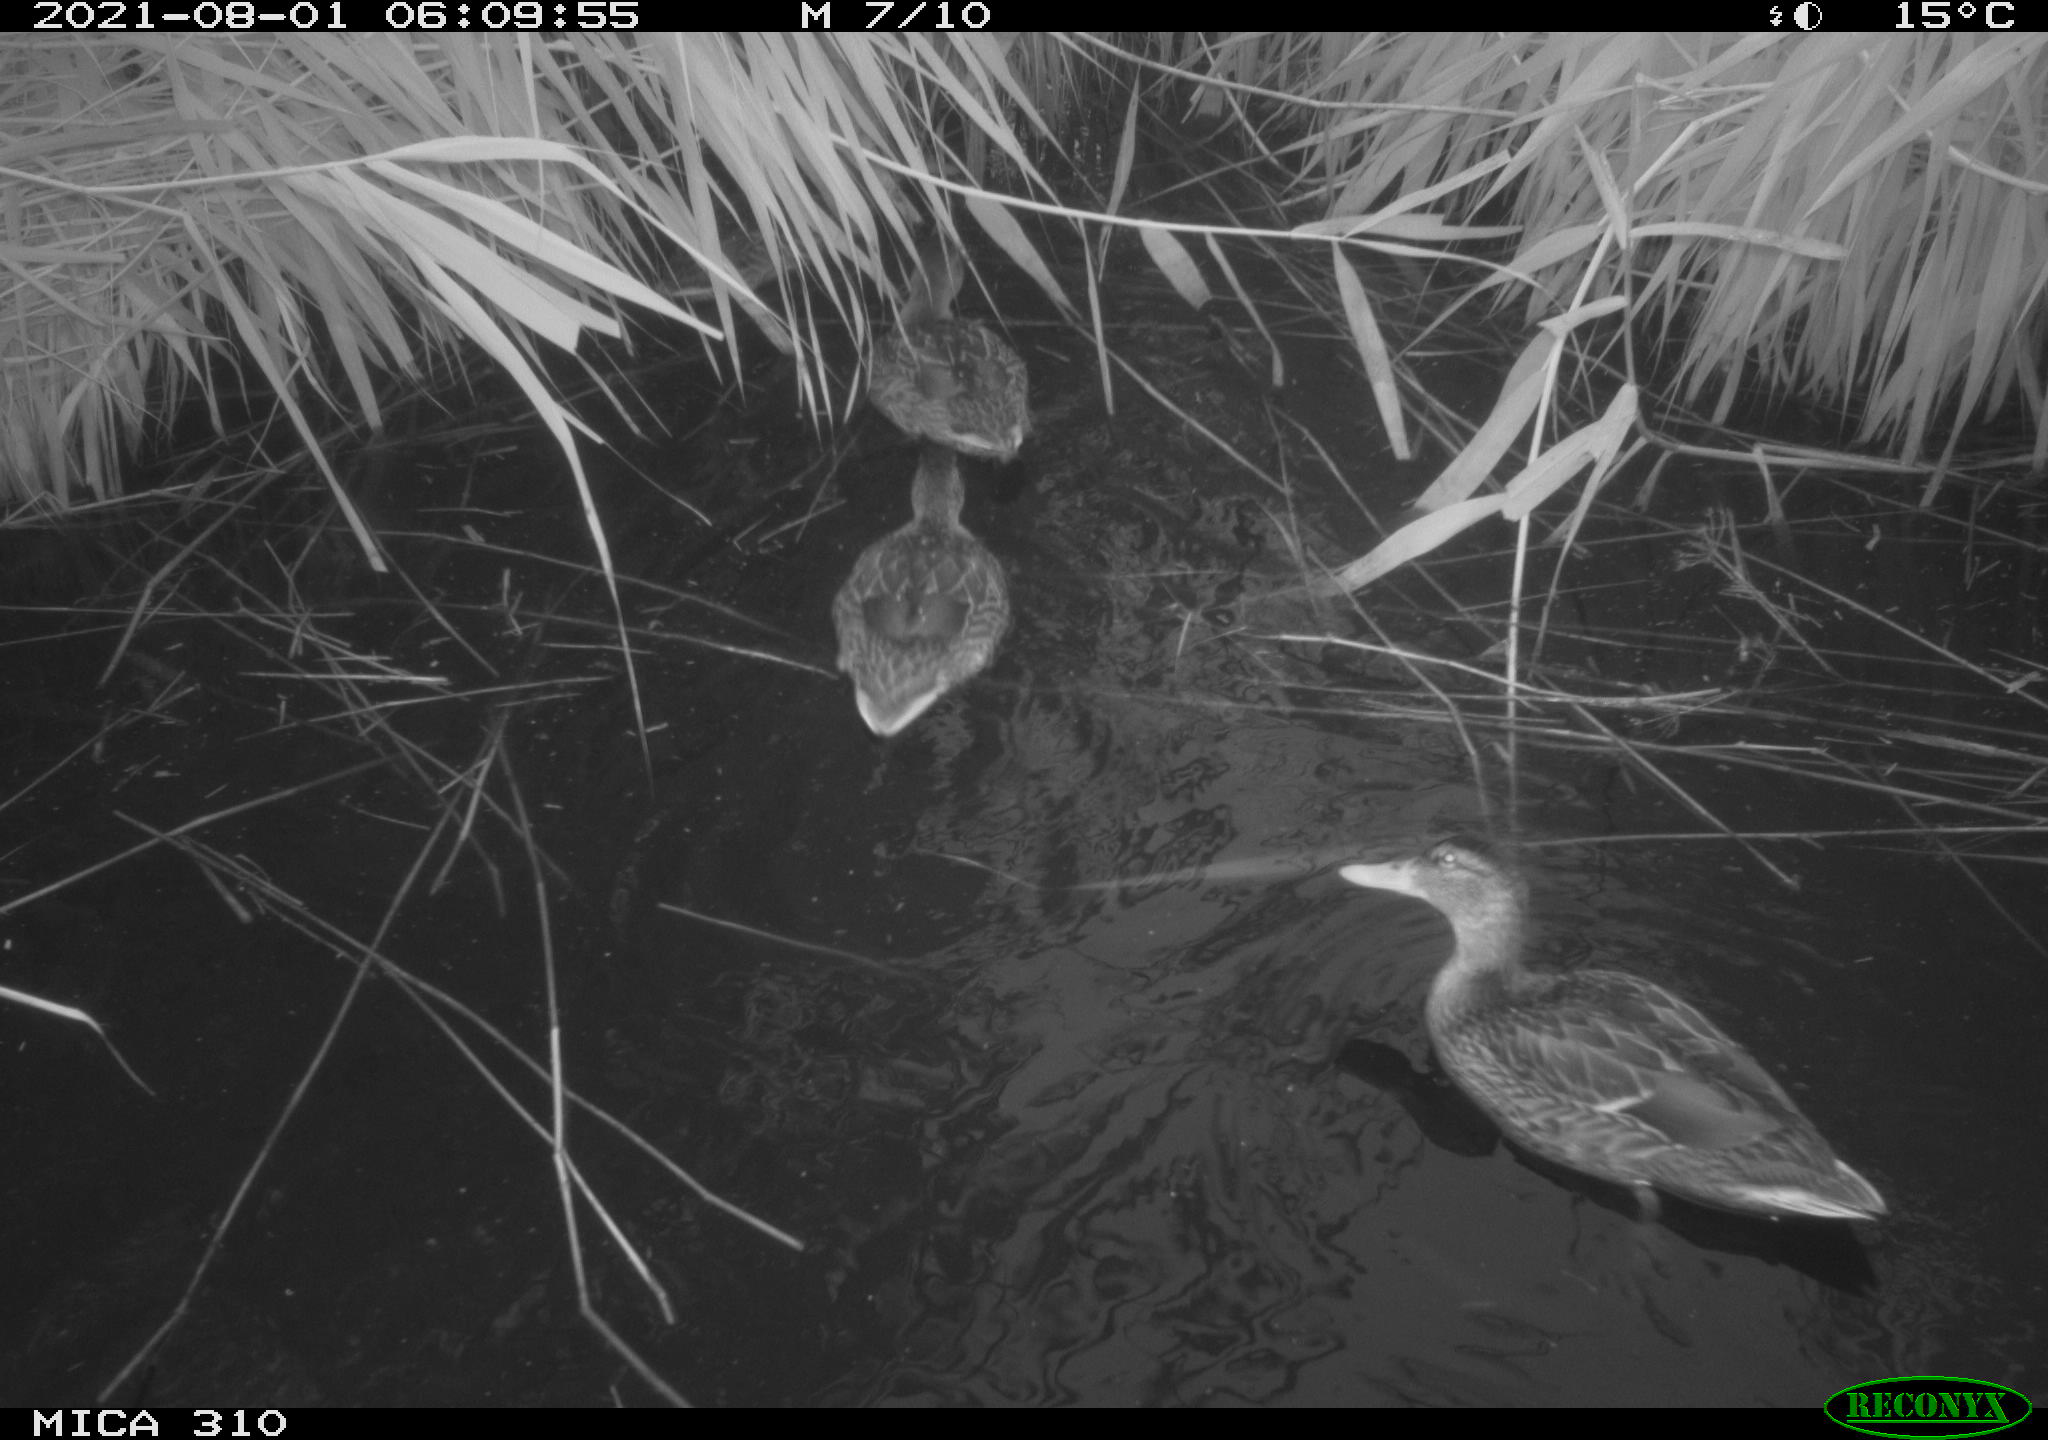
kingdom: Animalia
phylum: Chordata
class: Aves
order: Anseriformes
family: Anatidae
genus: Anas
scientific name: Anas platyrhynchos
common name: Mallard
